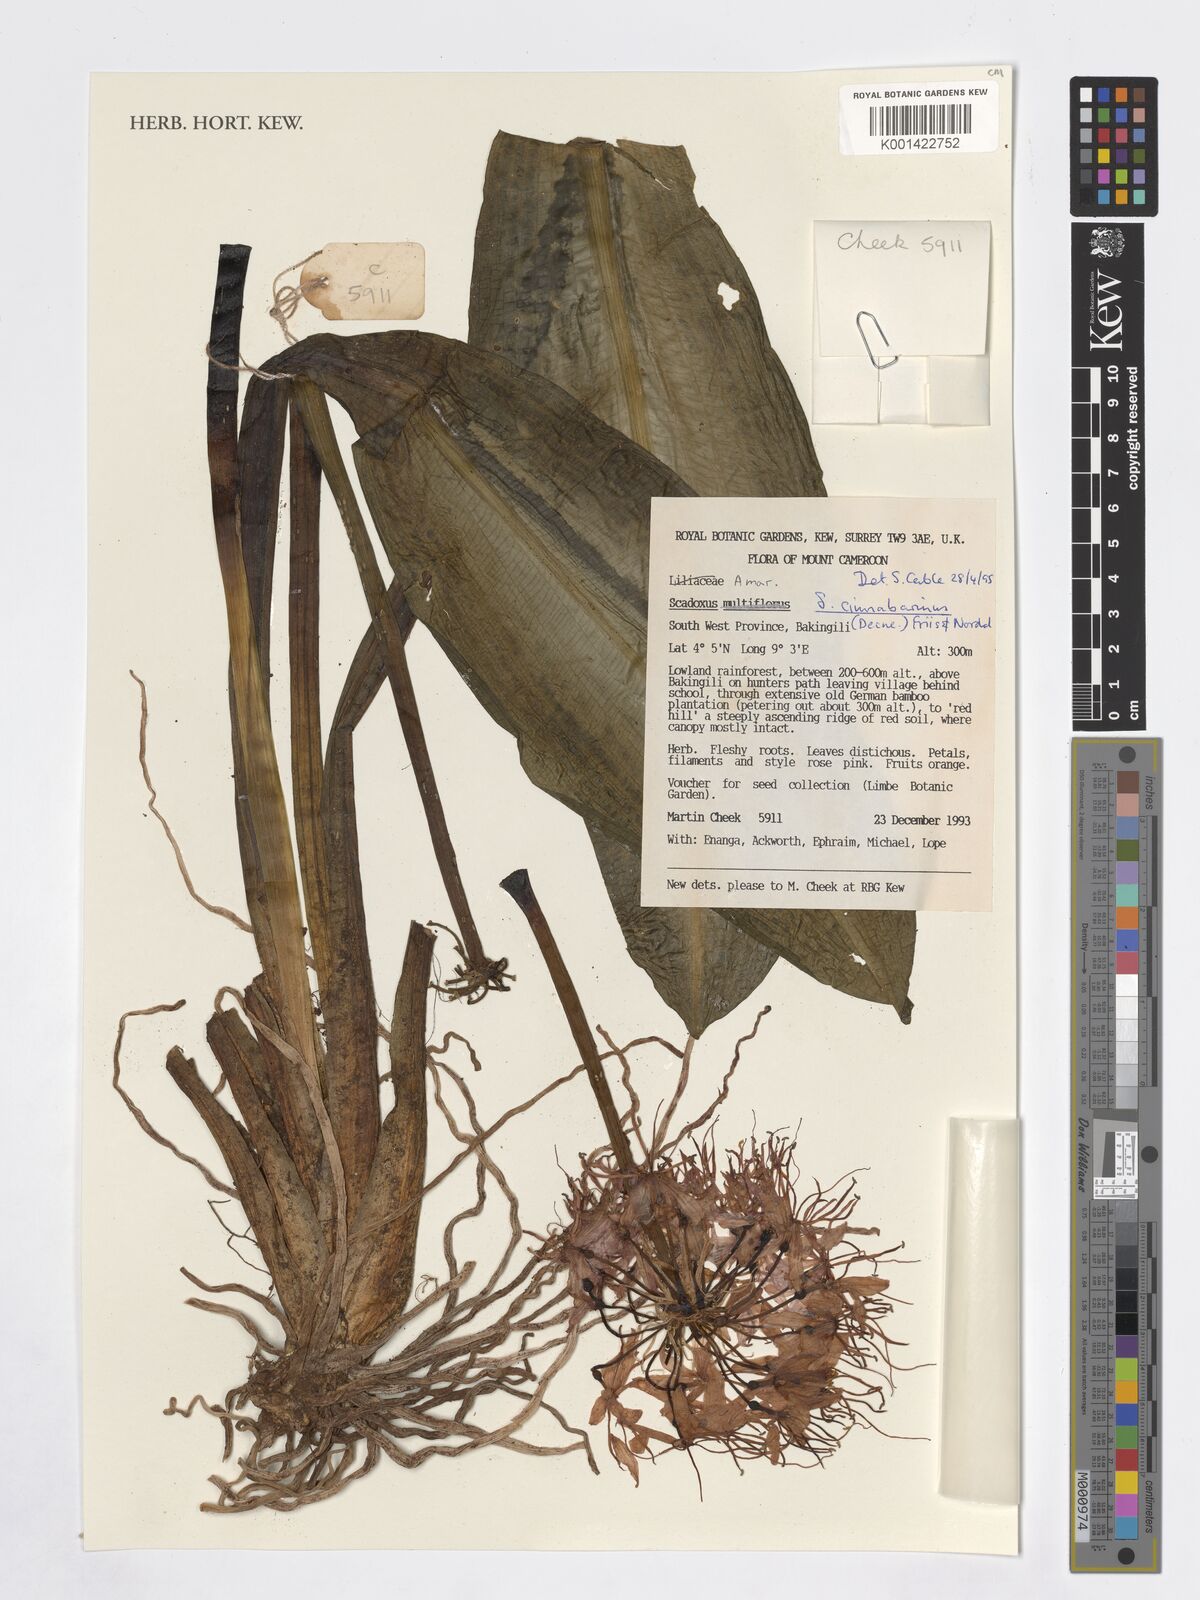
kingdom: Plantae
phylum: Tracheophyta
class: Liliopsida
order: Asparagales
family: Amaryllidaceae
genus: Scadoxus
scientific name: Scadoxus cinnabarinus
